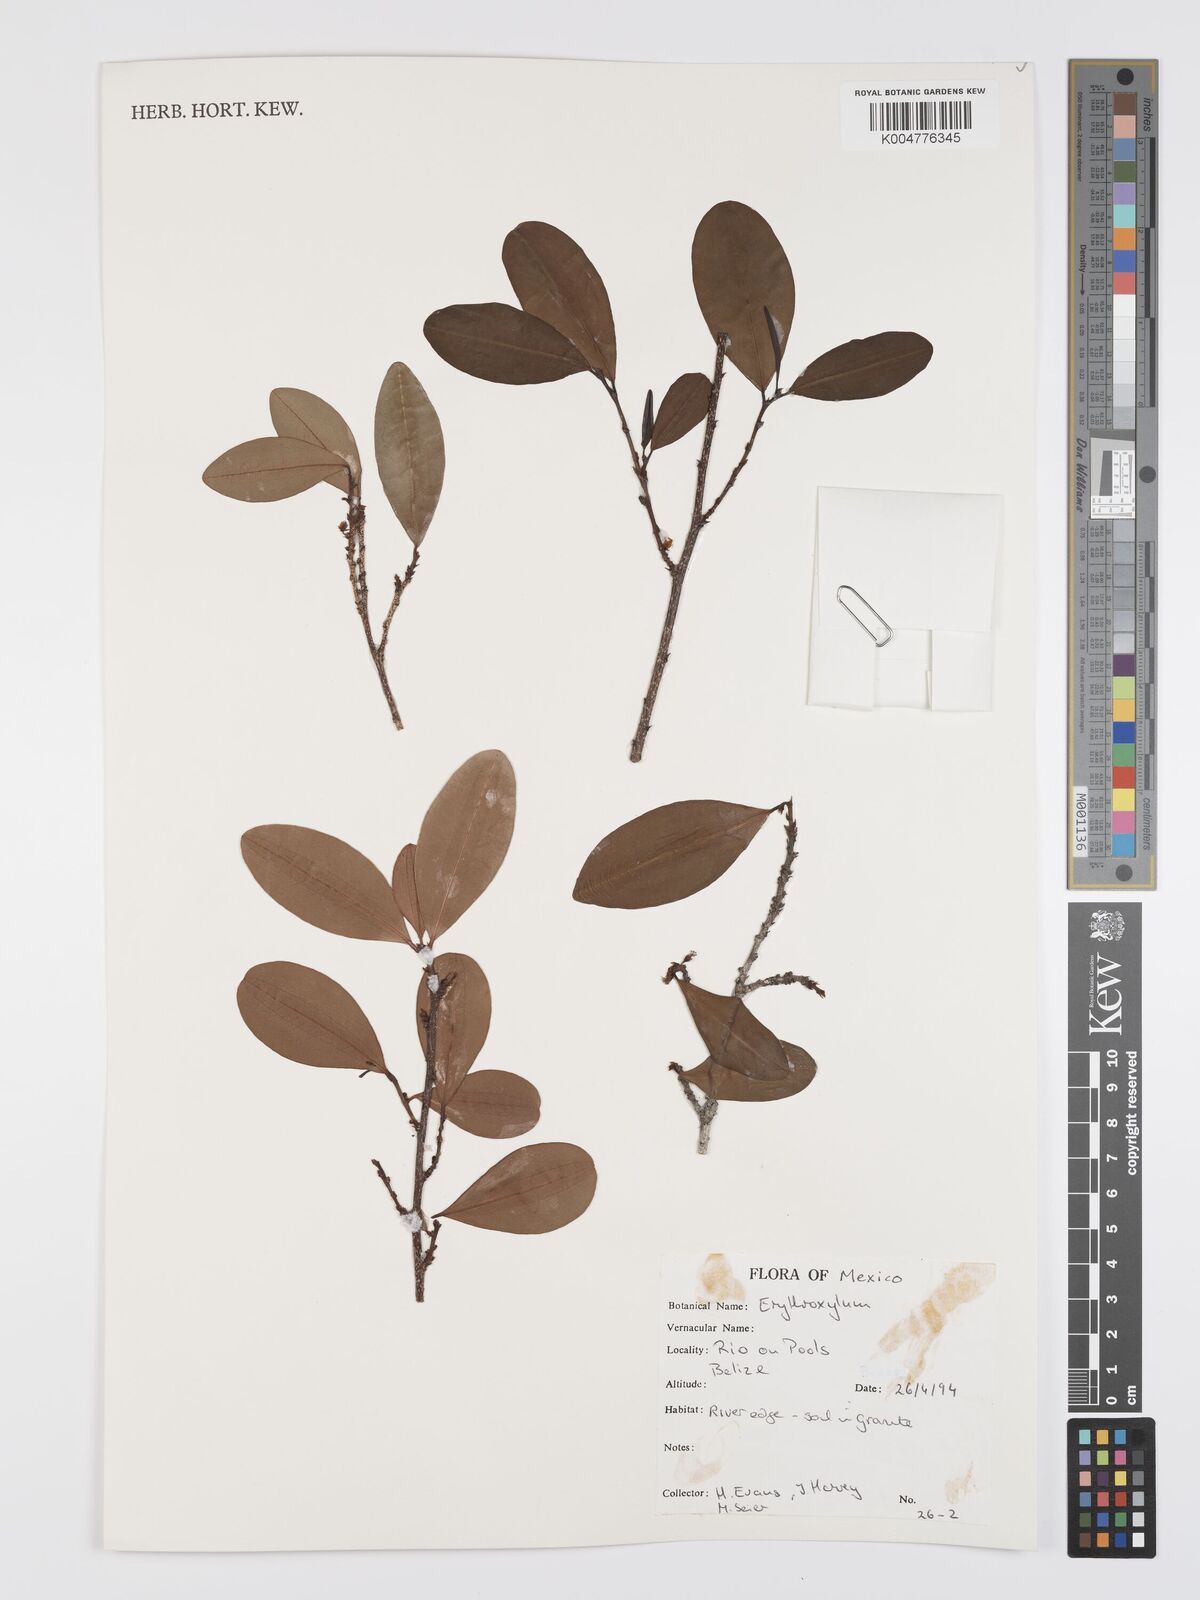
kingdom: Plantae
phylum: Tracheophyta
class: Magnoliopsida
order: Malpighiales
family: Erythroxylaceae
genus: Erythroxylum
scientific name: Erythroxylum
